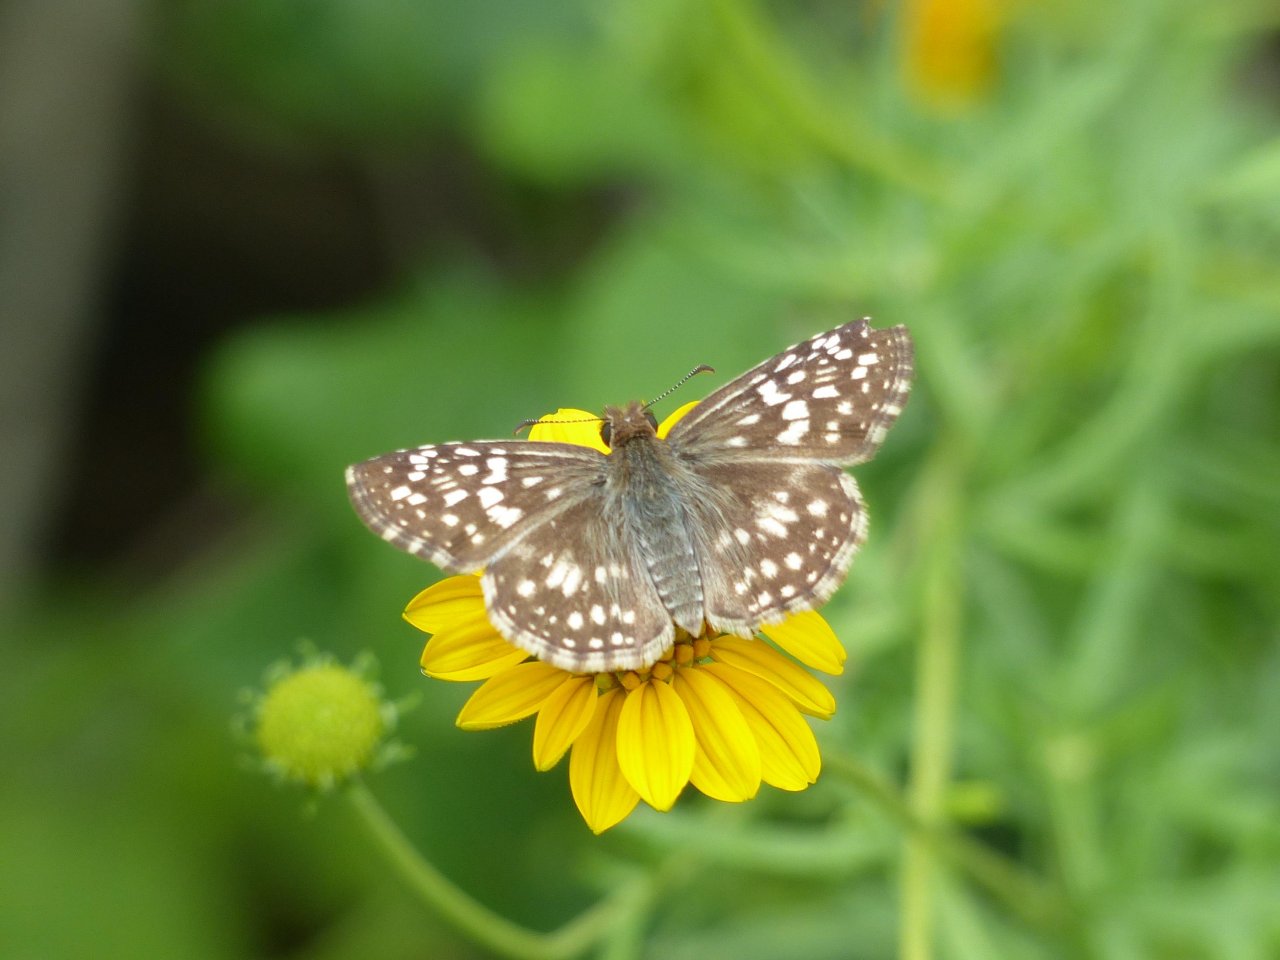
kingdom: Animalia
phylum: Arthropoda
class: Insecta
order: Lepidoptera
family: Hesperiidae
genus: Pyrgus
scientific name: Pyrgus oileus
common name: Tropical Checkered-Skipper
